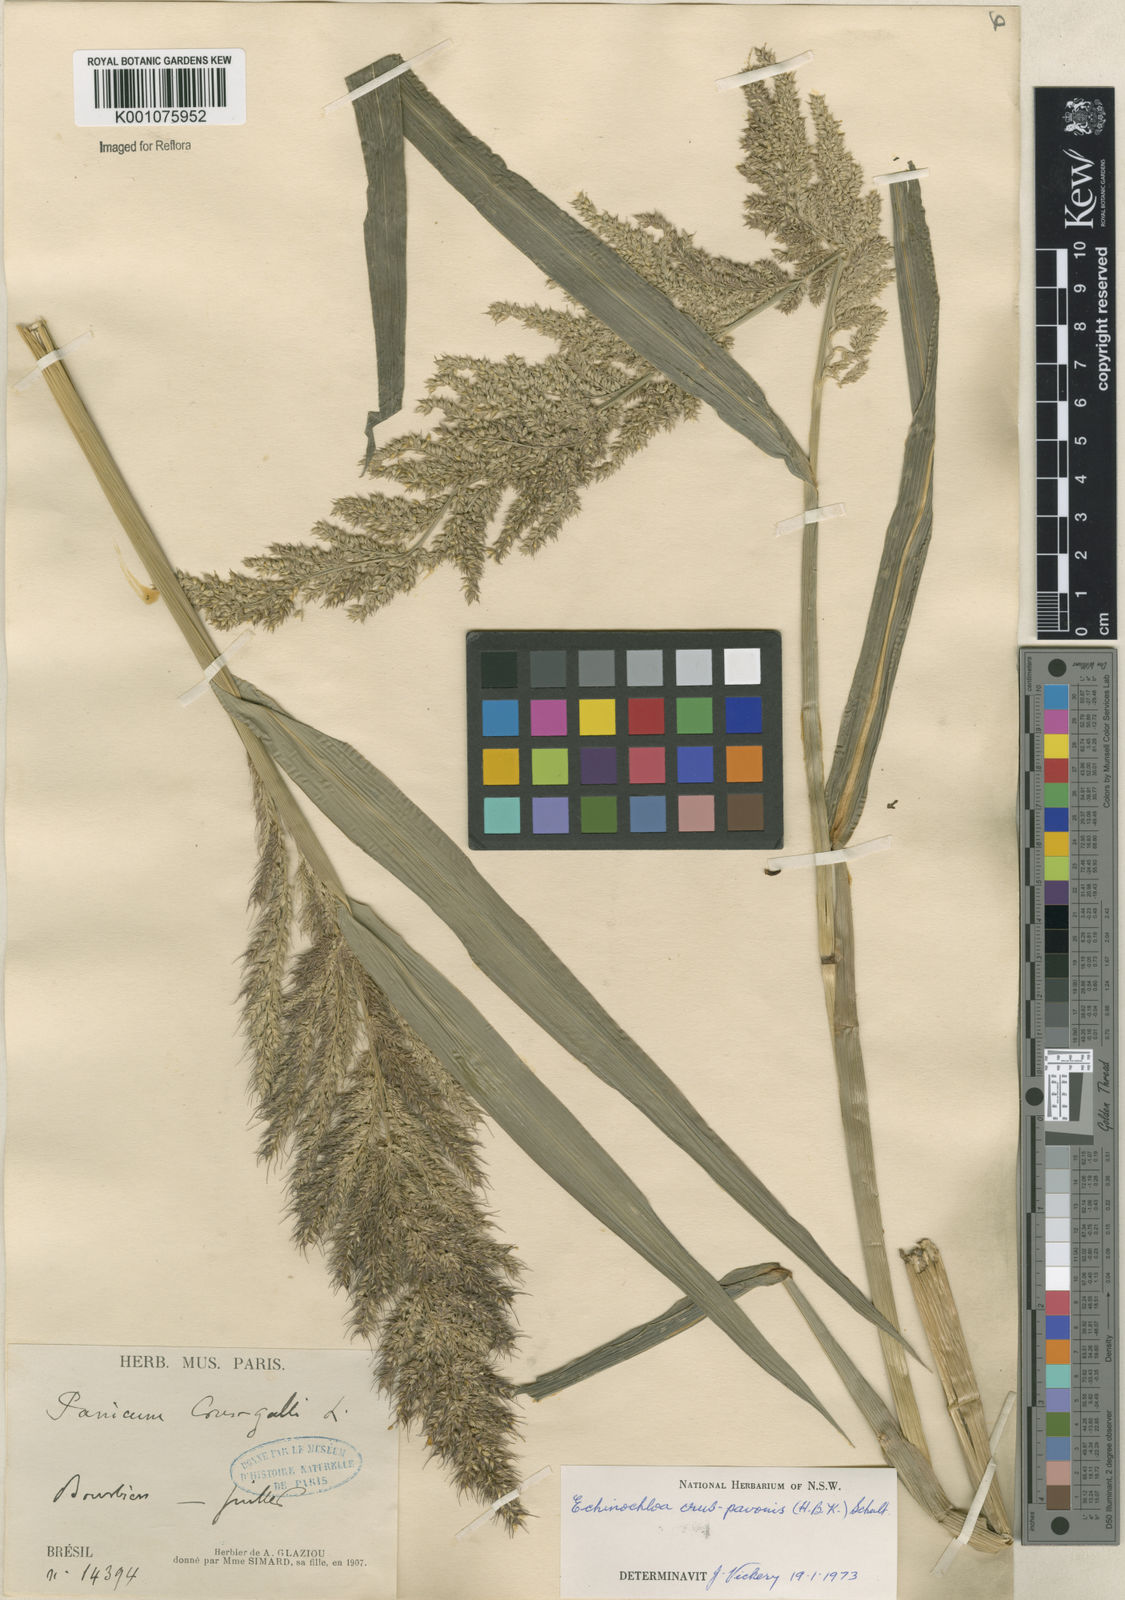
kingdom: Plantae
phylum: Tracheophyta
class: Liliopsida
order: Poales
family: Poaceae
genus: Echinochloa
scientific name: Echinochloa crus-pavonis
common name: Gulf cockspur grass
